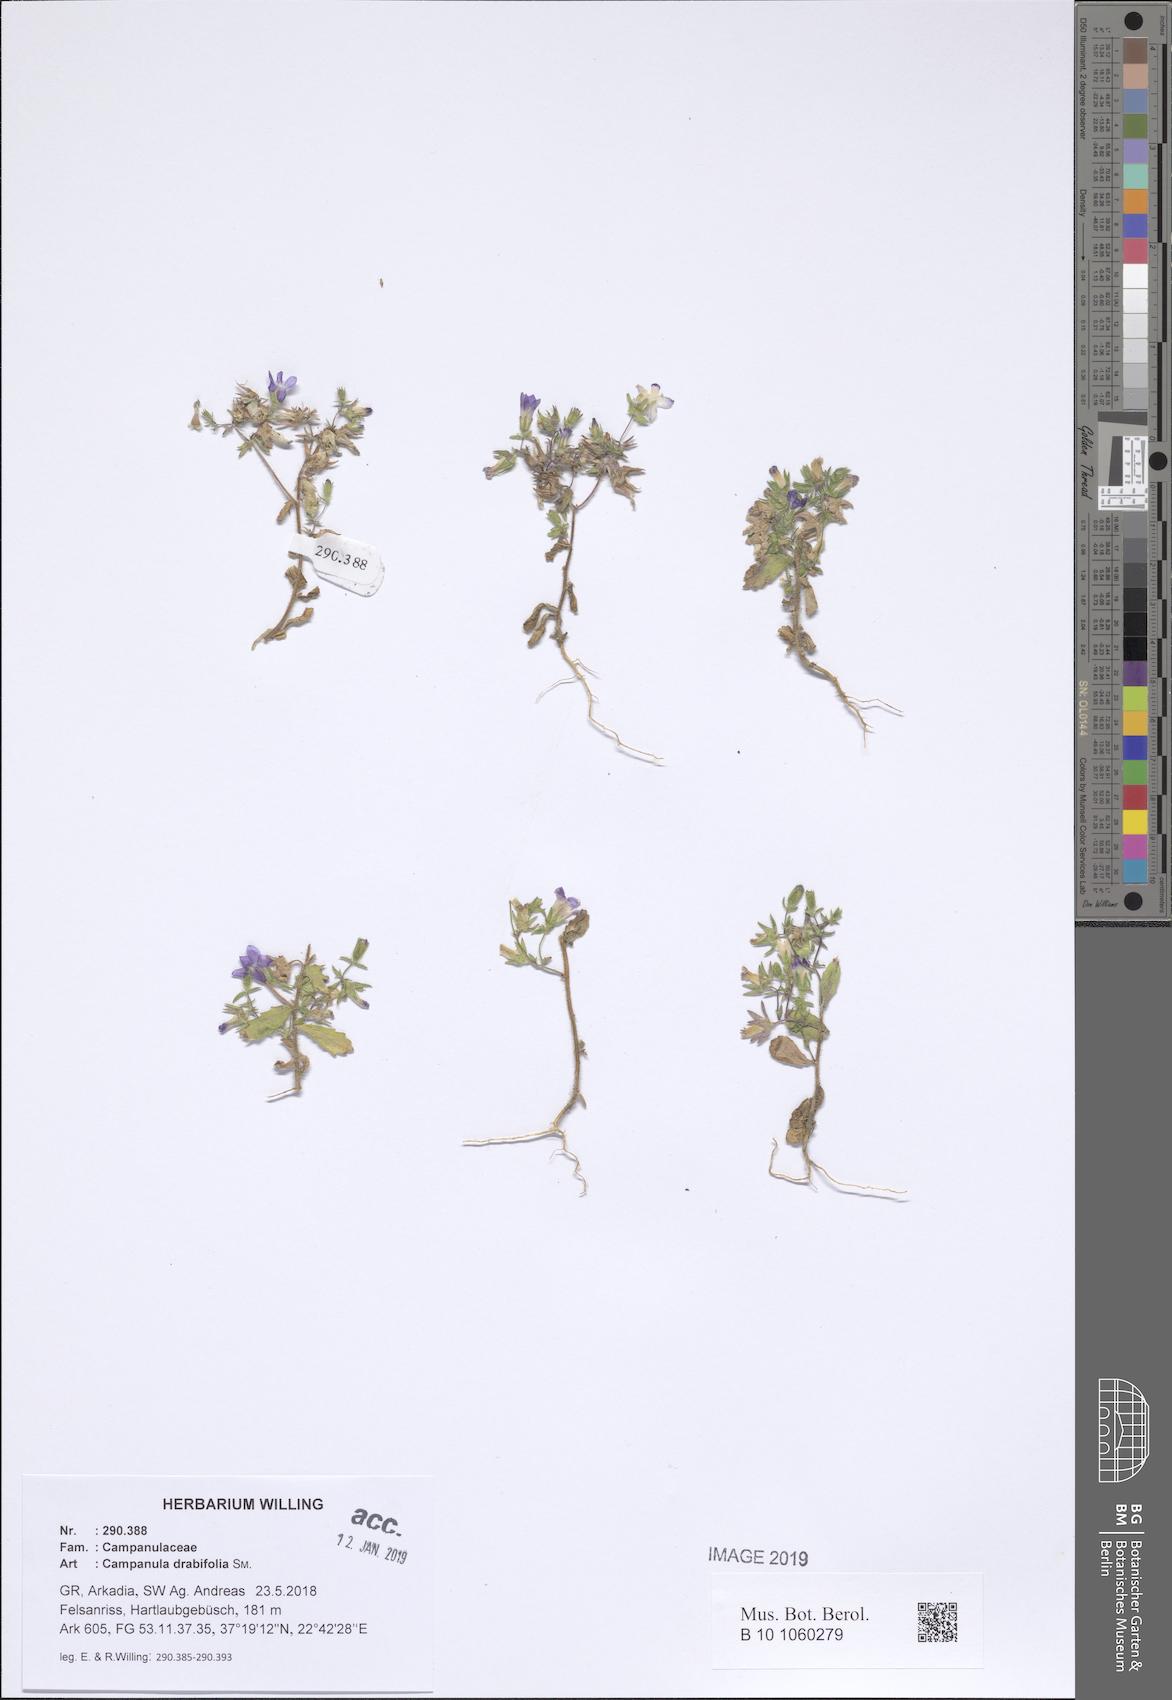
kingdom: Plantae
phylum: Tracheophyta
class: Magnoliopsida
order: Asterales
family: Campanulaceae
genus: Campanula
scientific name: Campanula drabifolia
